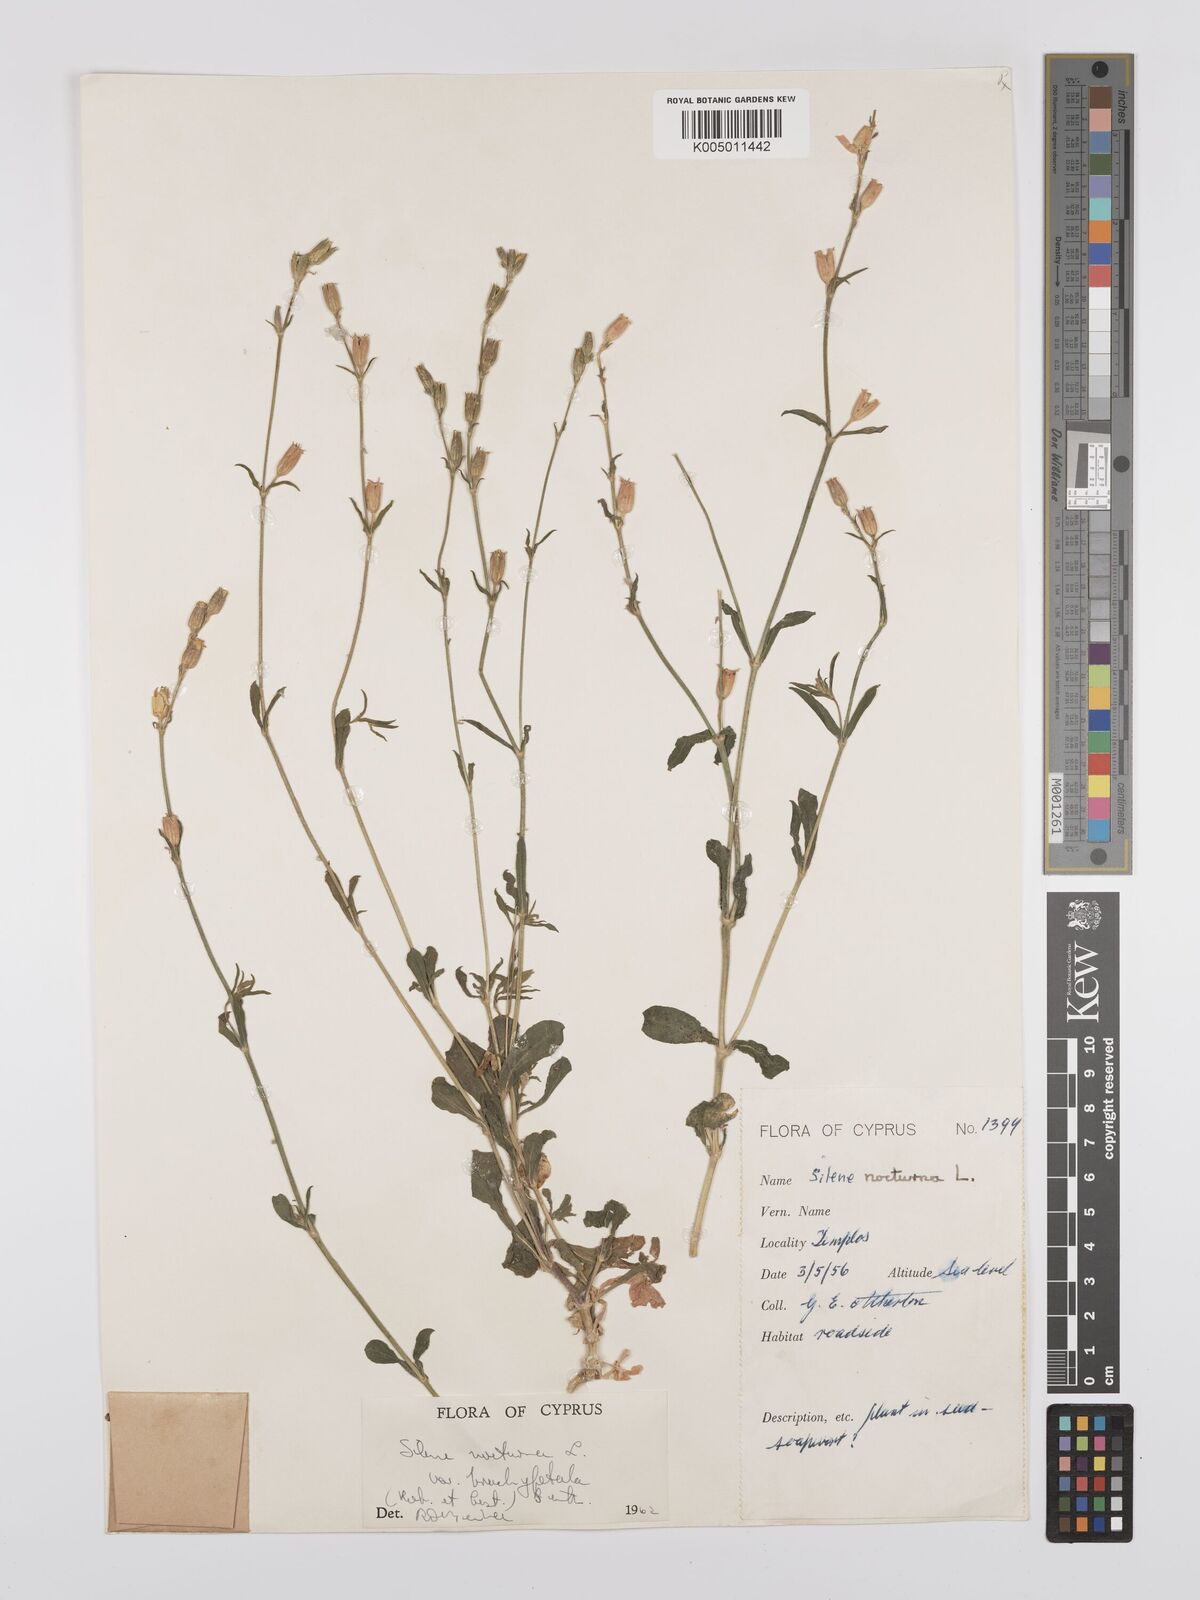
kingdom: Plantae
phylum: Tracheophyta
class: Magnoliopsida
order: Caryophyllales
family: Caryophyllaceae
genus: Silene
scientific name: Silene nocturna
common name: Mediterranean catchfly
